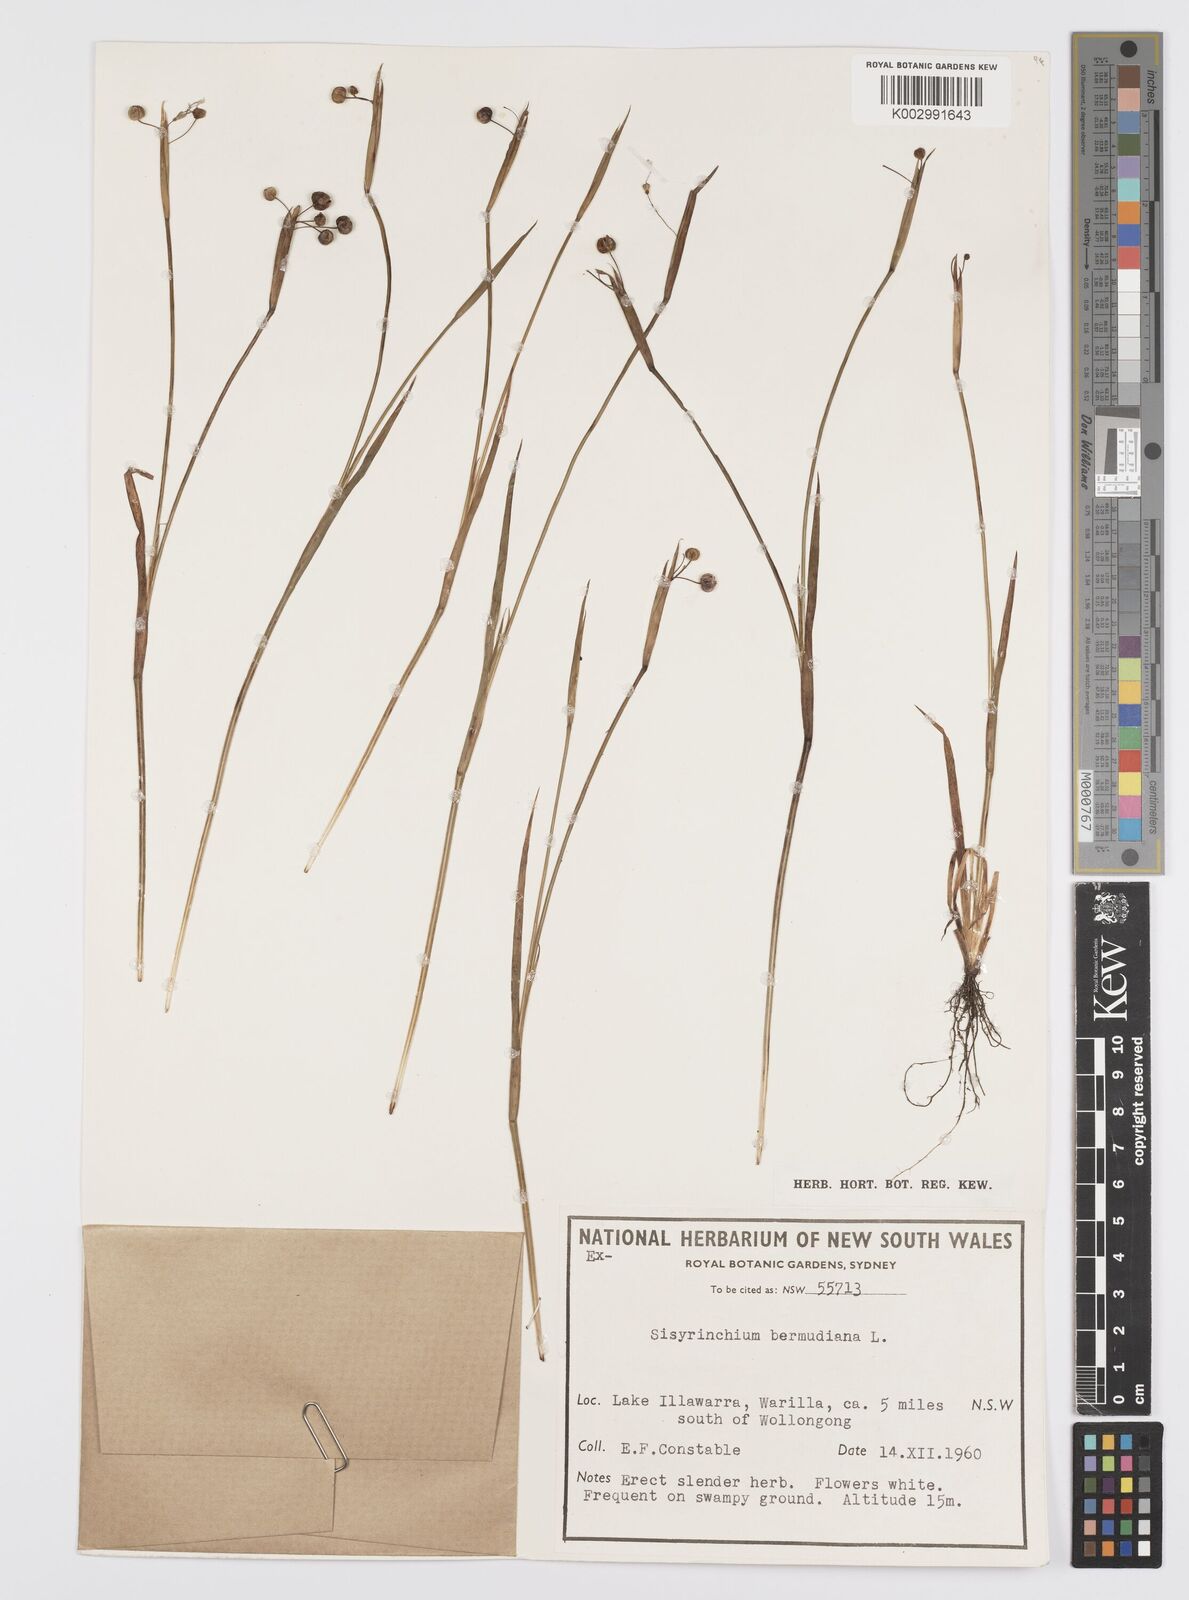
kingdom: Plantae
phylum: Tracheophyta
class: Liliopsida
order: Asparagales
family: Iridaceae
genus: Sisyrinchium
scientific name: Sisyrinchium bermudiana
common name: Blue-eyed-grass
